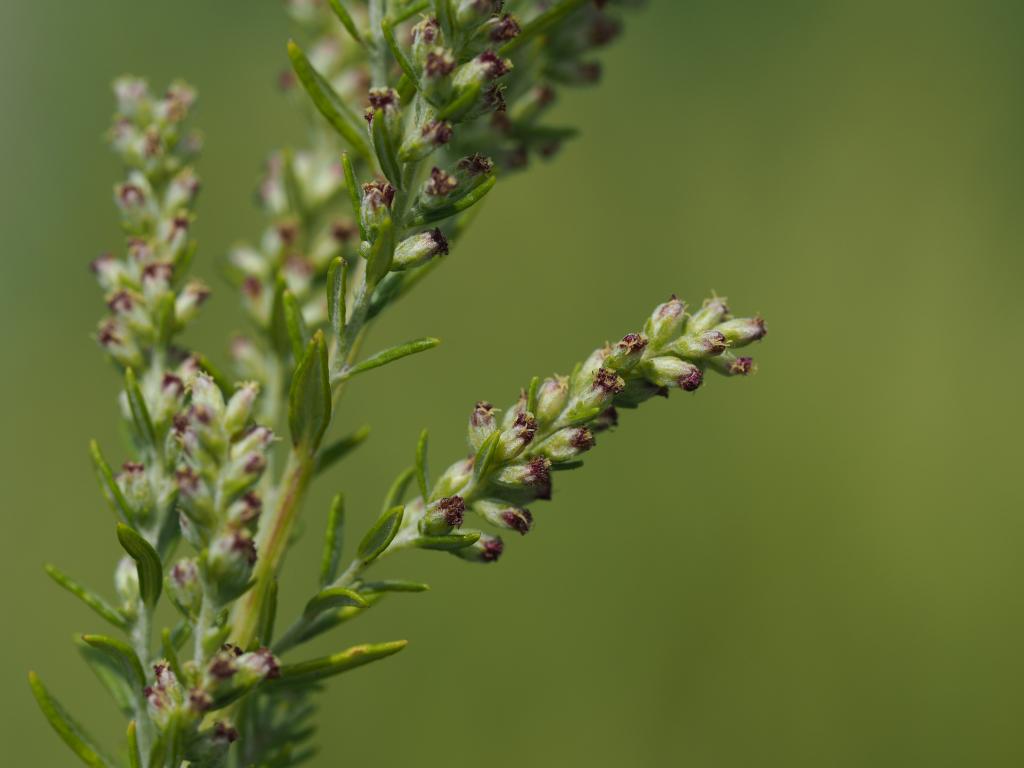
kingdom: Plantae
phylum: Tracheophyta
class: Magnoliopsida
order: Asterales
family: Asteraceae
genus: Artemisia
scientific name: Artemisia lancea
